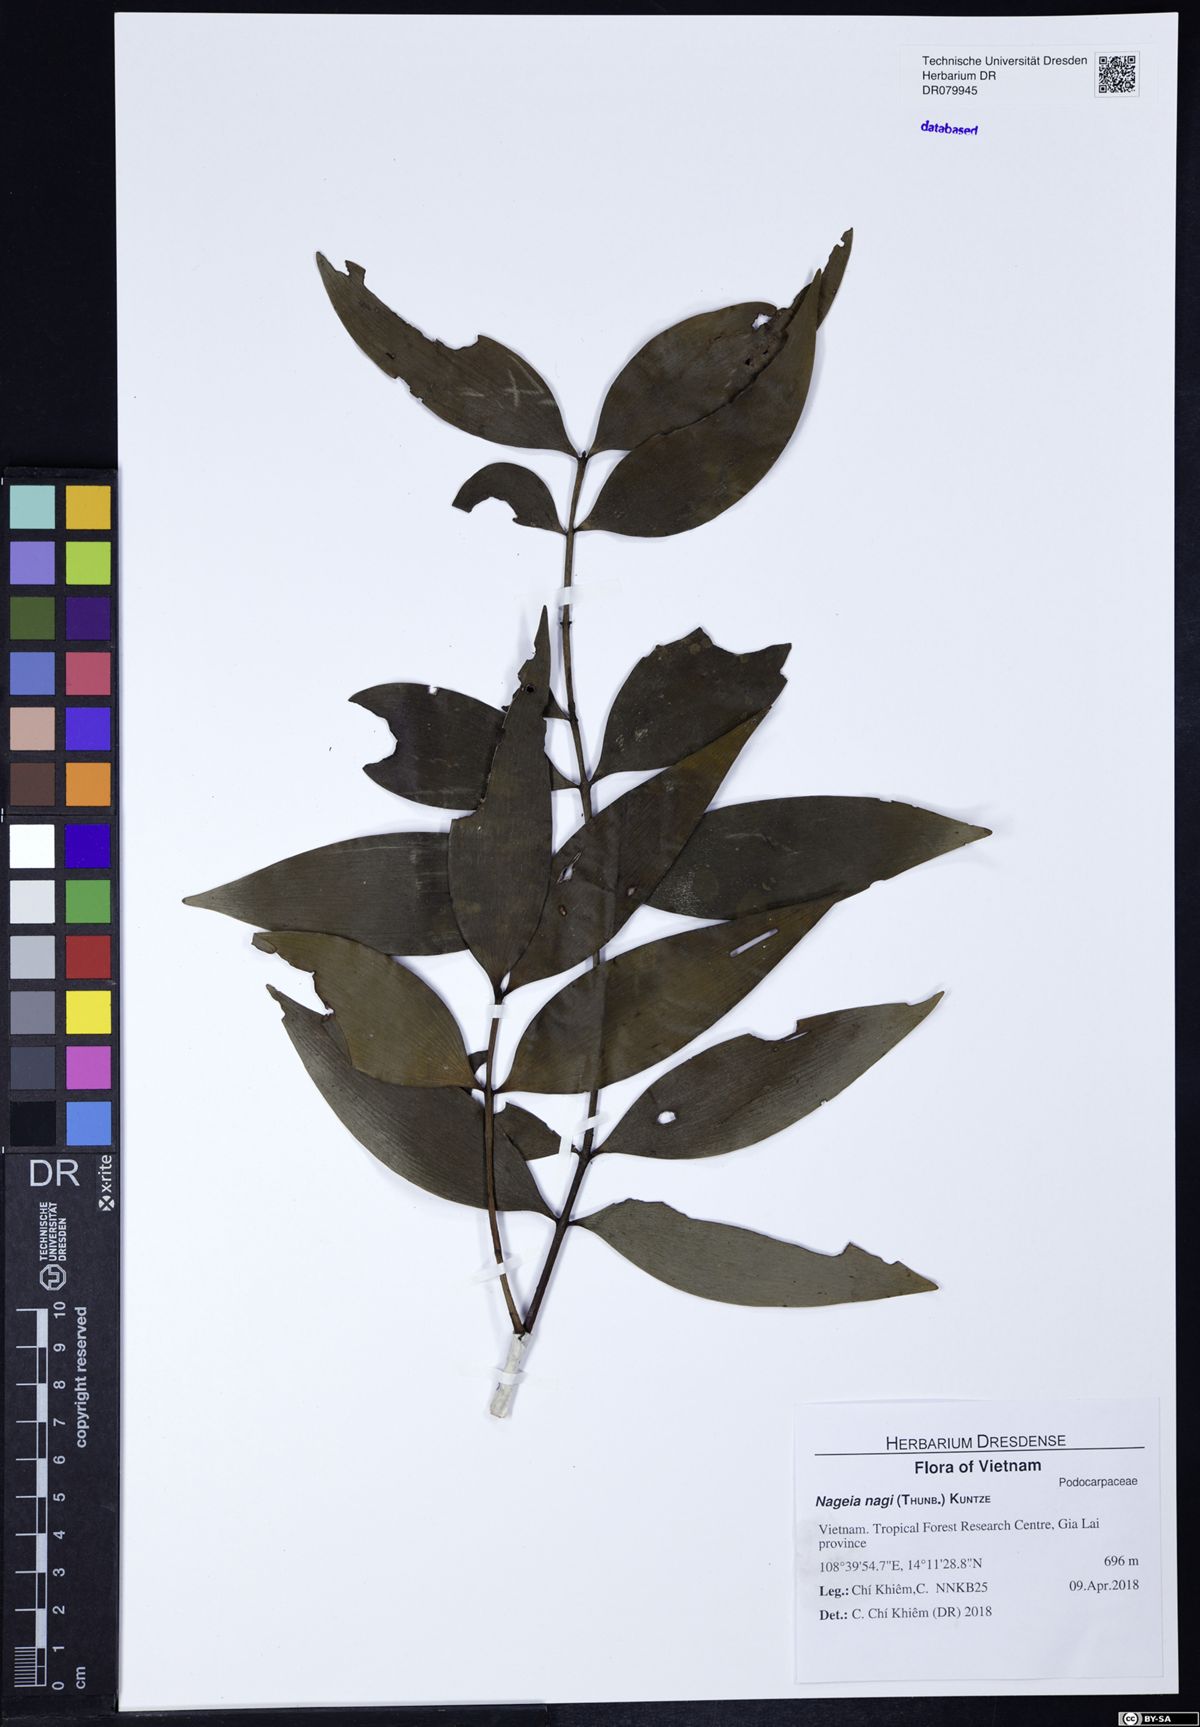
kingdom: Plantae
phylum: Tracheophyta
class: Pinopsida
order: Pinales
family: Podocarpaceae
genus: Nageia
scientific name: Nageia nagi
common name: Kaphal
